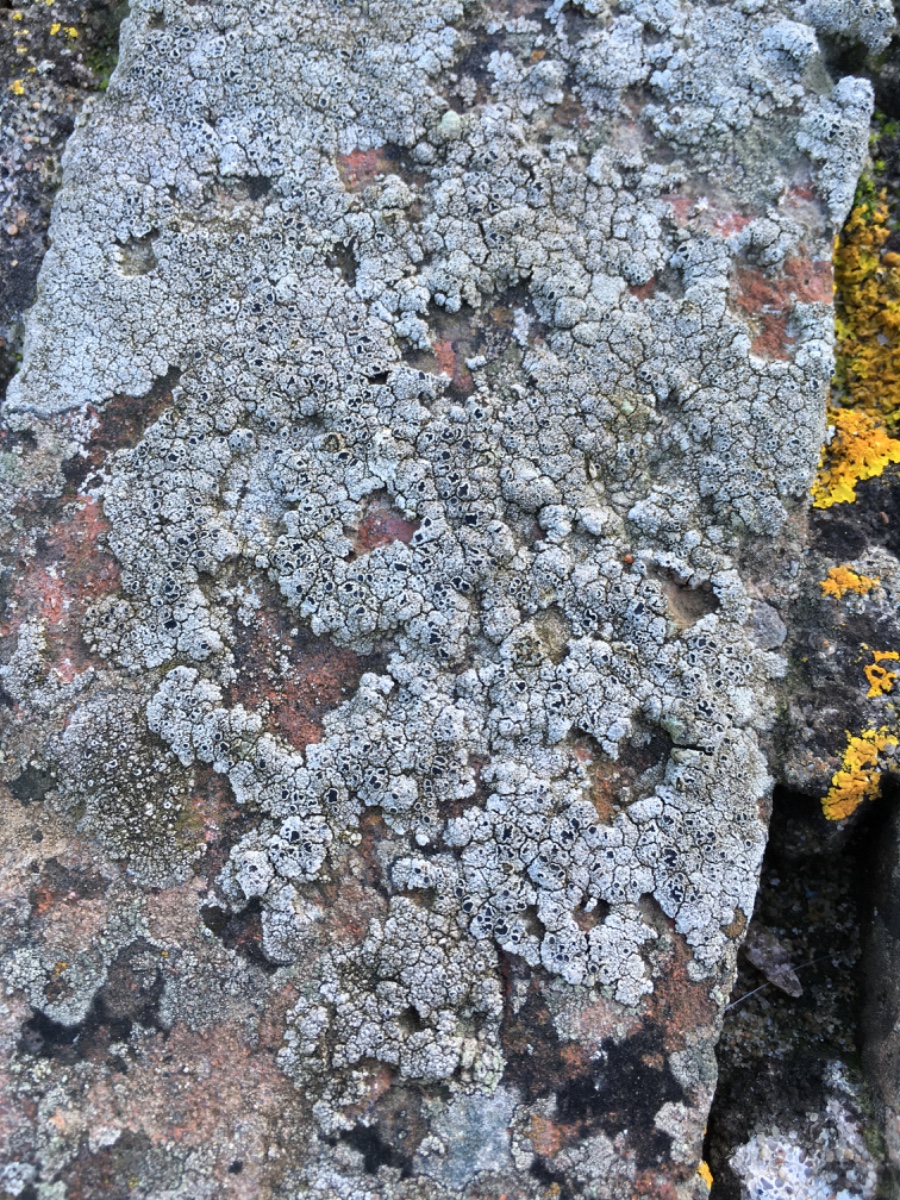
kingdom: Fungi
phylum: Ascomycota
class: Lecanoromycetes
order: Lecanorales
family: Tephromelataceae
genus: Tephromela
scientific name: Tephromela atra
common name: sortfrugtet kantskivelav
